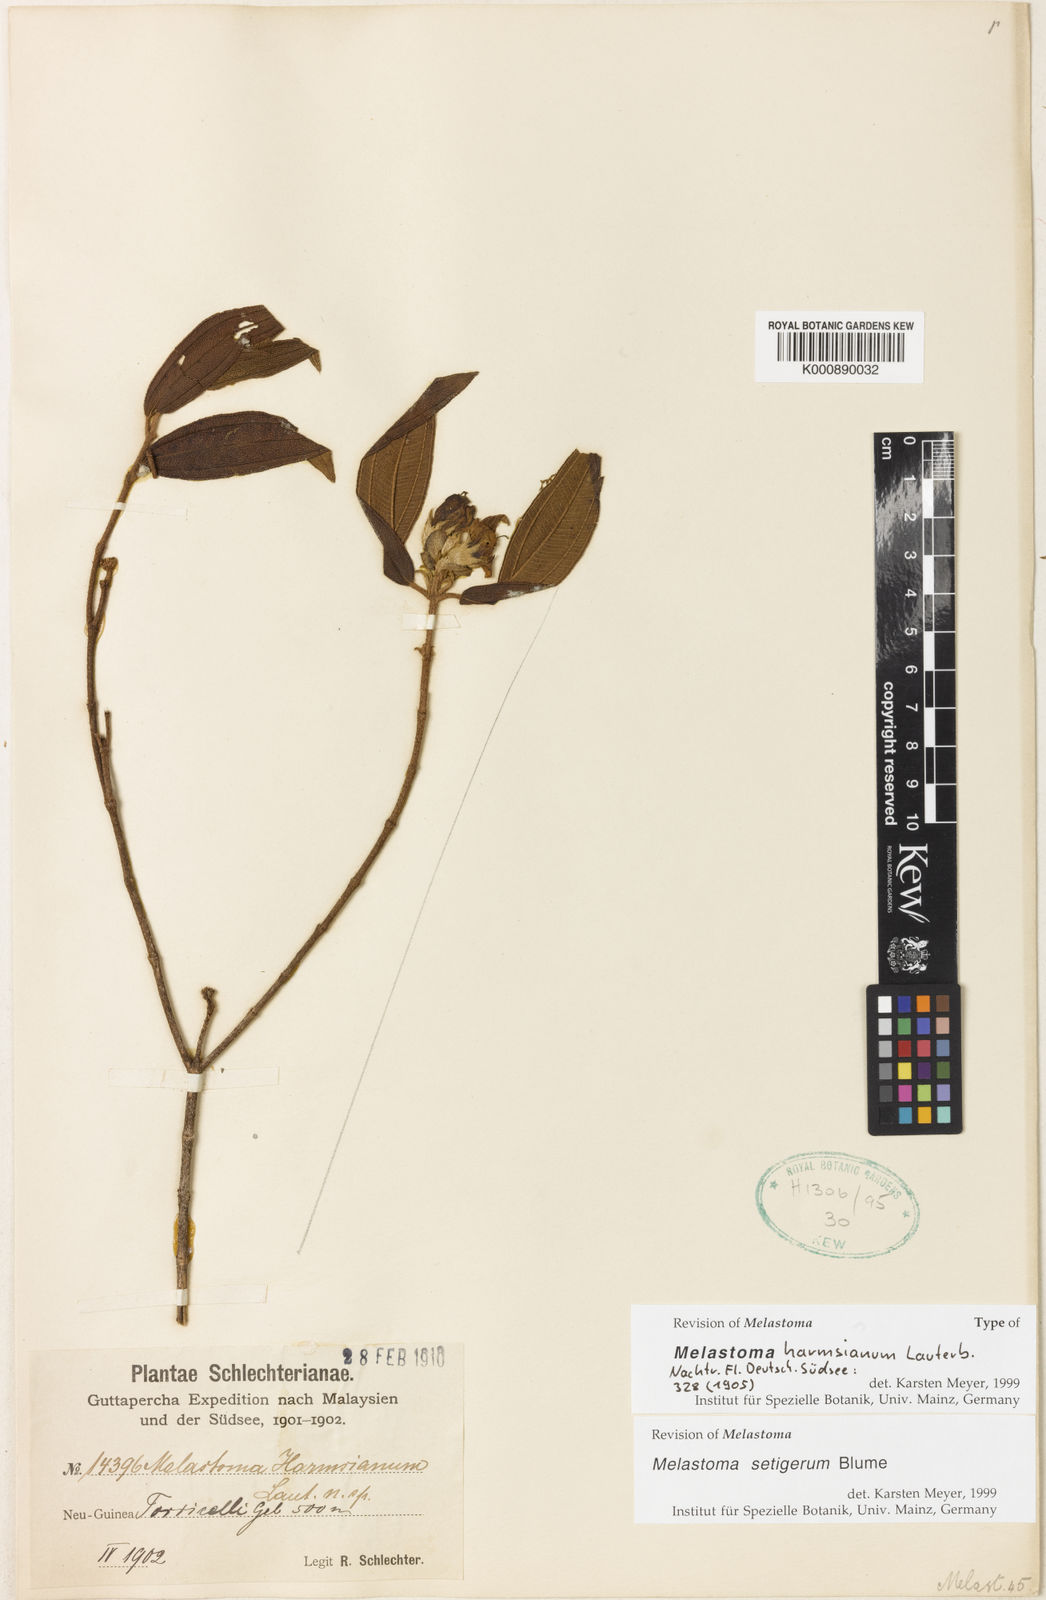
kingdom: Plantae
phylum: Tracheophyta
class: Magnoliopsida
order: Myrtales
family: Melastomataceae
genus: Melastoma
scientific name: Melastoma malabathricum
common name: Indian-rhododendron
